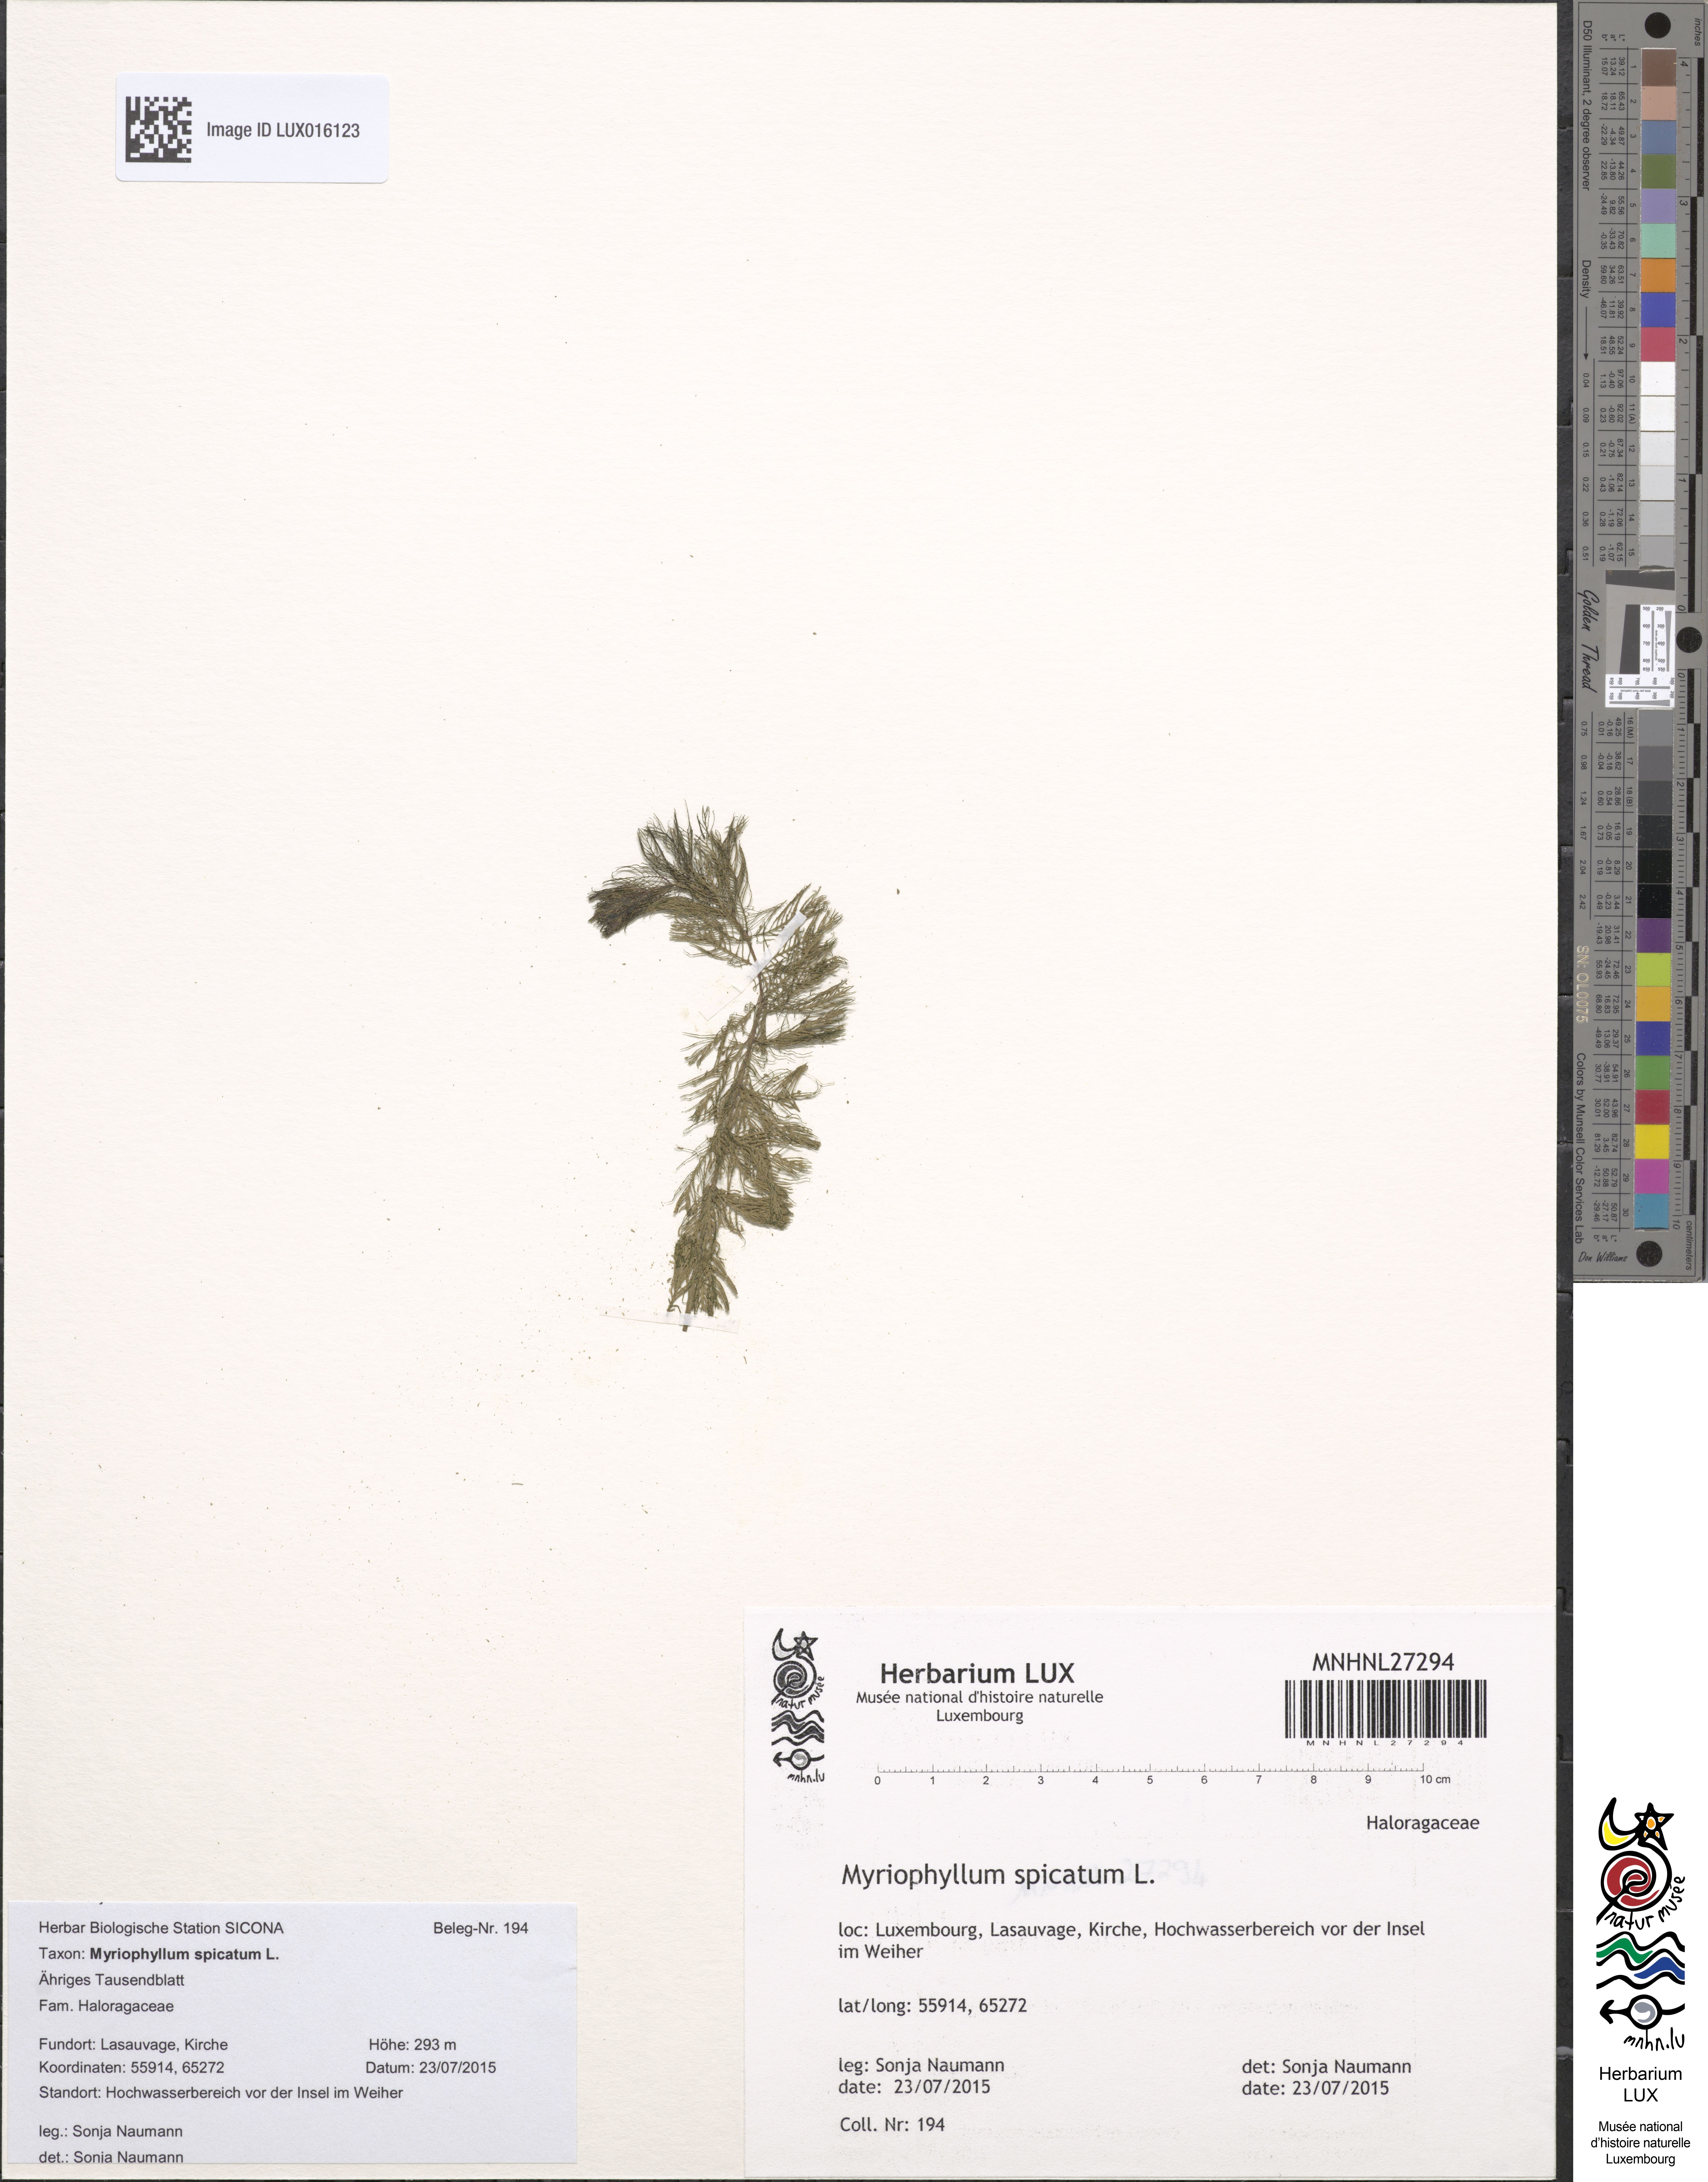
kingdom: Plantae
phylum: Tracheophyta
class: Magnoliopsida
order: Saxifragales
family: Haloragaceae
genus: Myriophyllum
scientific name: Myriophyllum spicatum
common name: Spiked water-milfoil
